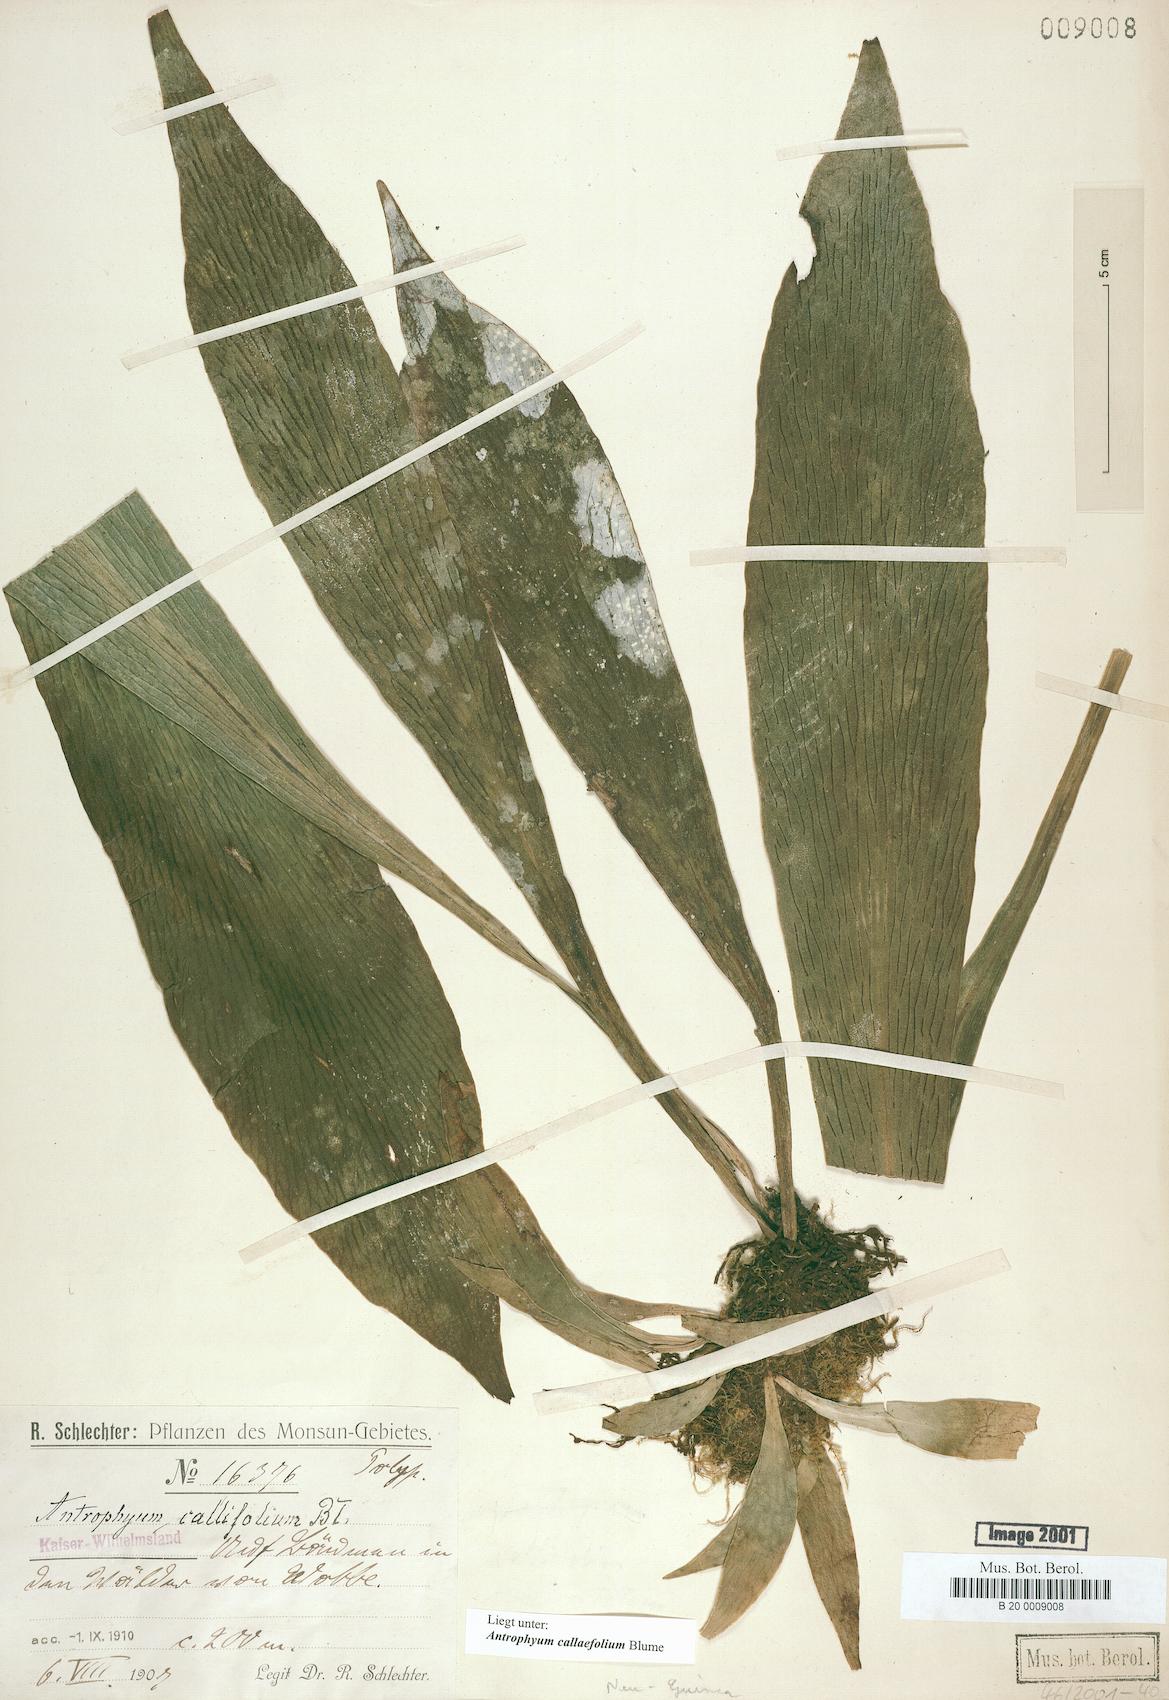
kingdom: Plantae
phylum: Tracheophyta
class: Polypodiopsida
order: Polypodiales
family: Pteridaceae
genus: Antrophyum
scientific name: Antrophyum callifolium
